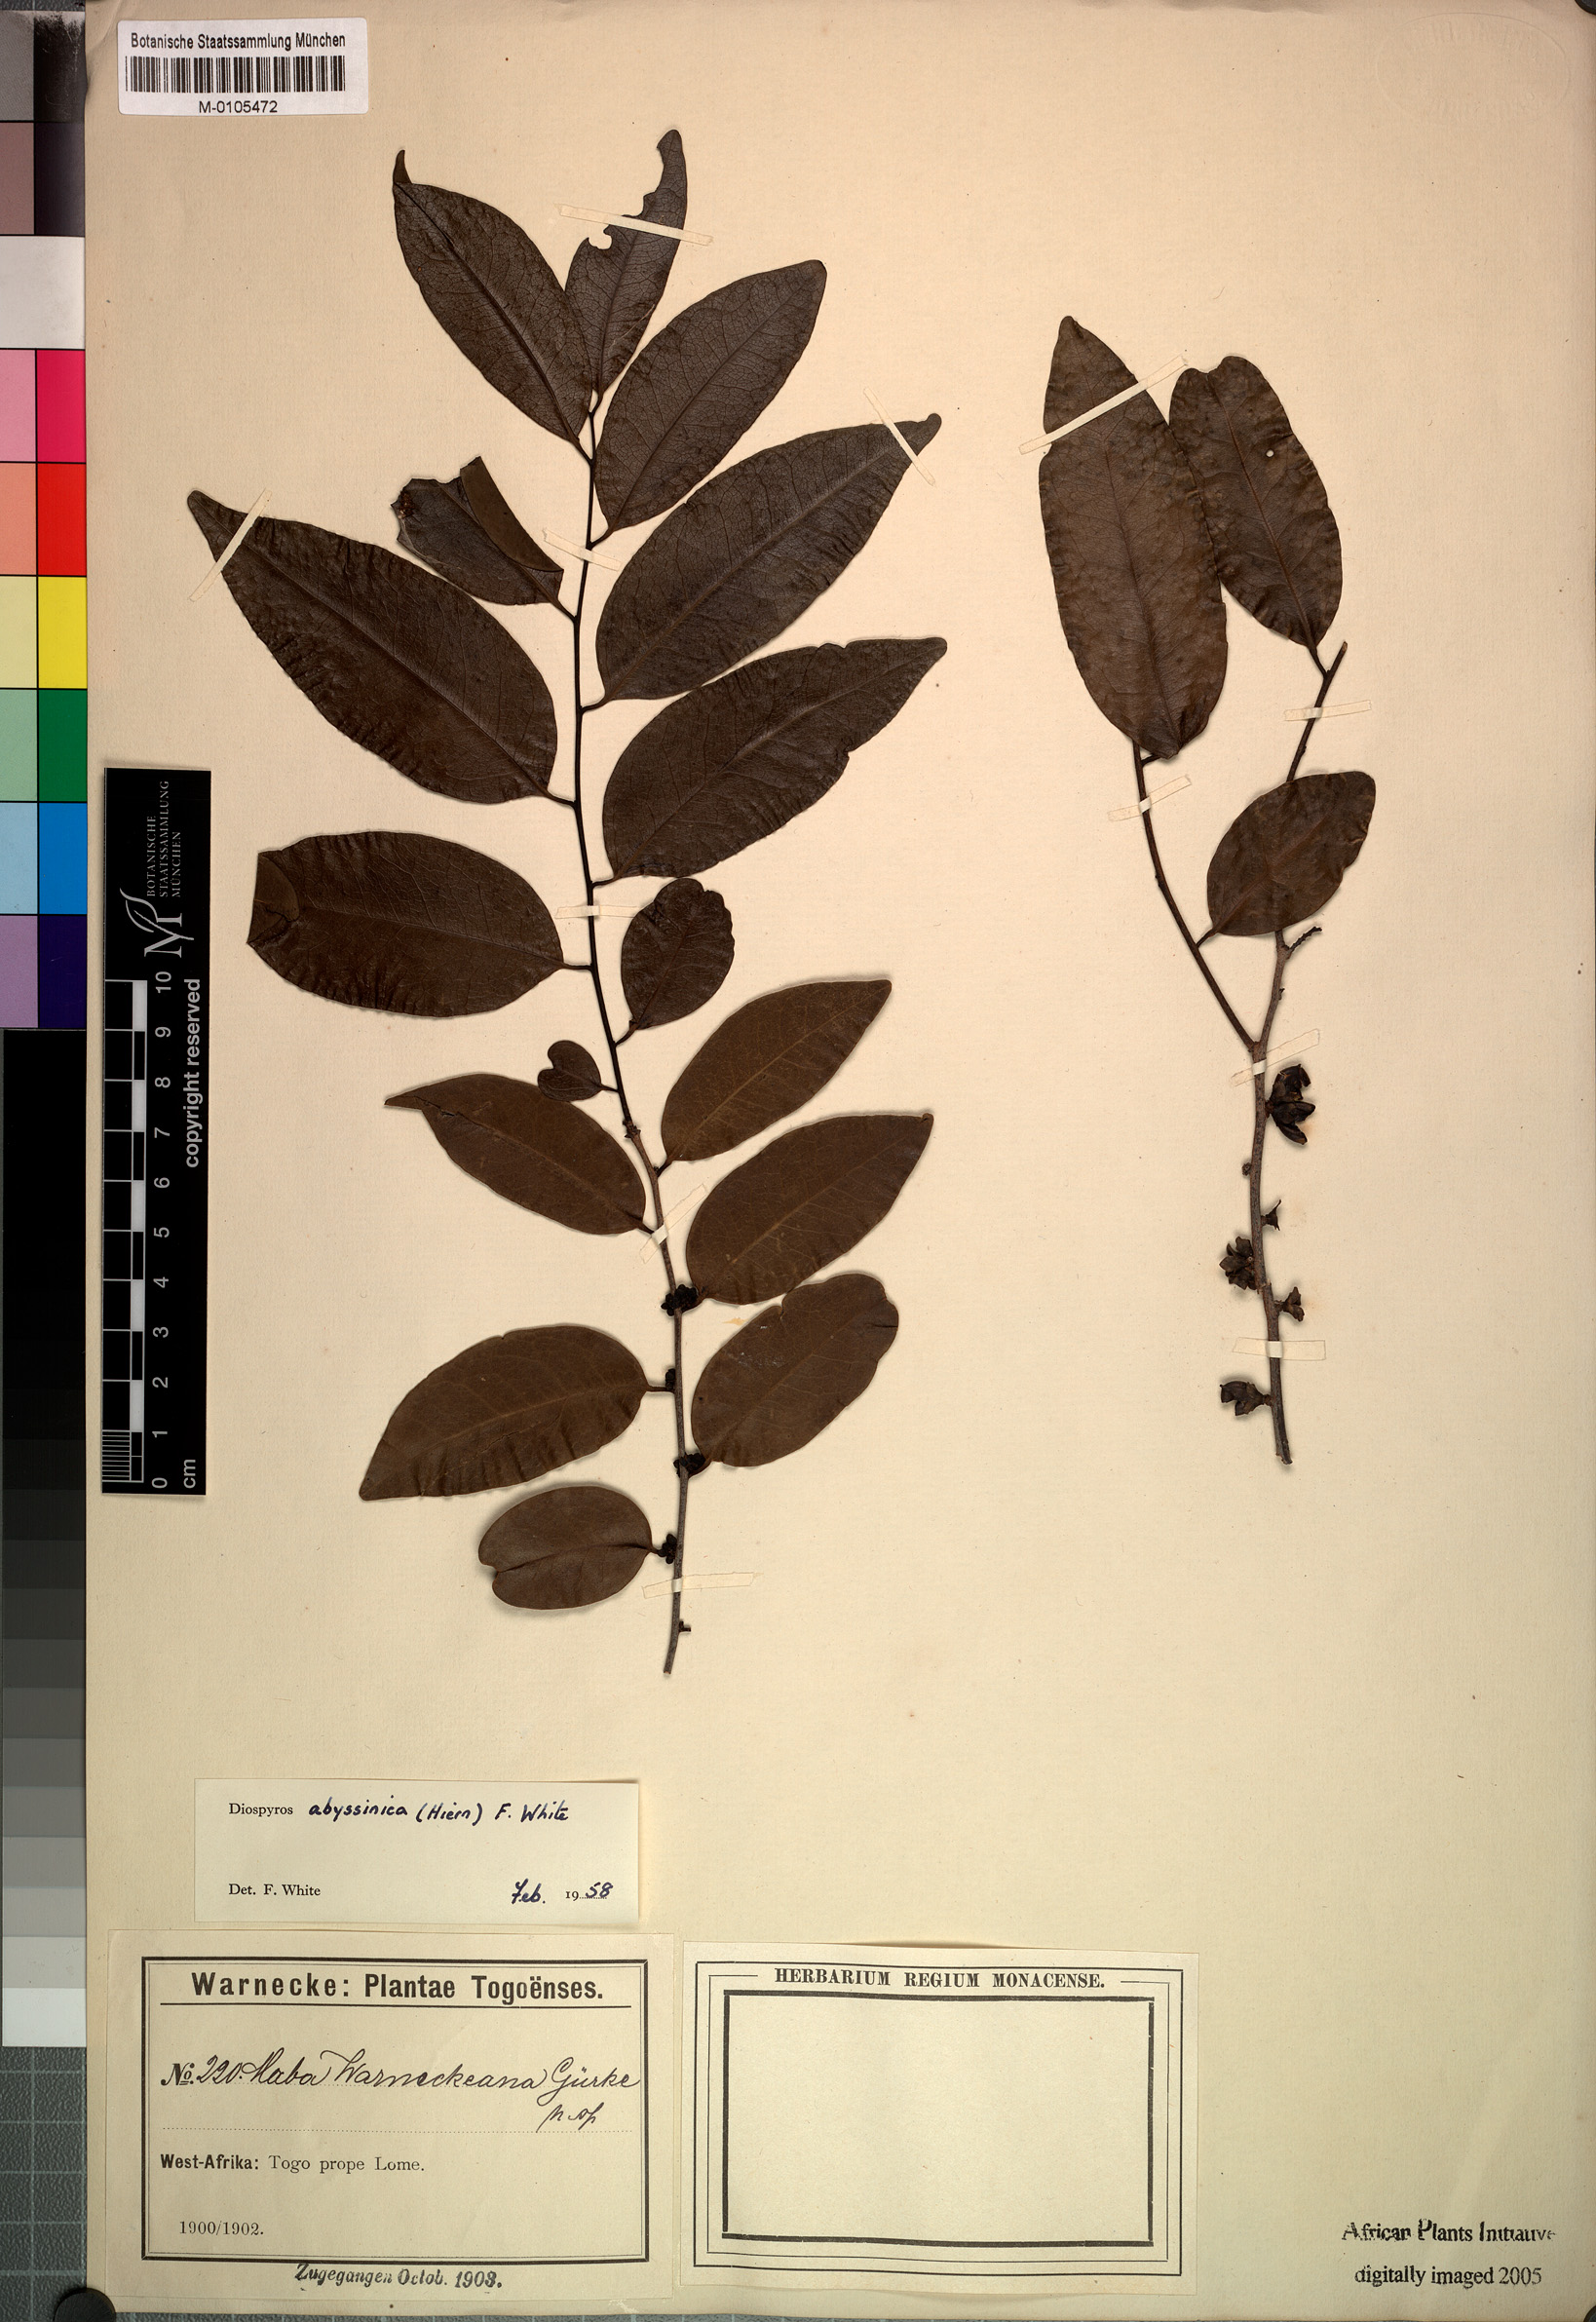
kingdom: Plantae
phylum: Tracheophyta
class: Magnoliopsida
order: Ericales
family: Ebenaceae
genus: Diospyros
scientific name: Diospyros abyssinica
